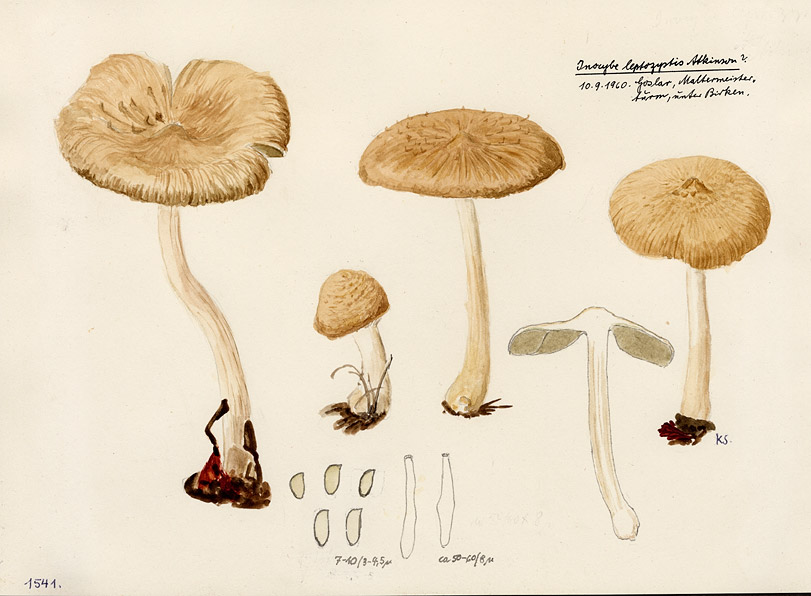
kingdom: Fungi
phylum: Basidiomycota
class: Agaricomycetes
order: Agaricales
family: Inocybaceae
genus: Inocybe
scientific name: Inocybe leptocystis
